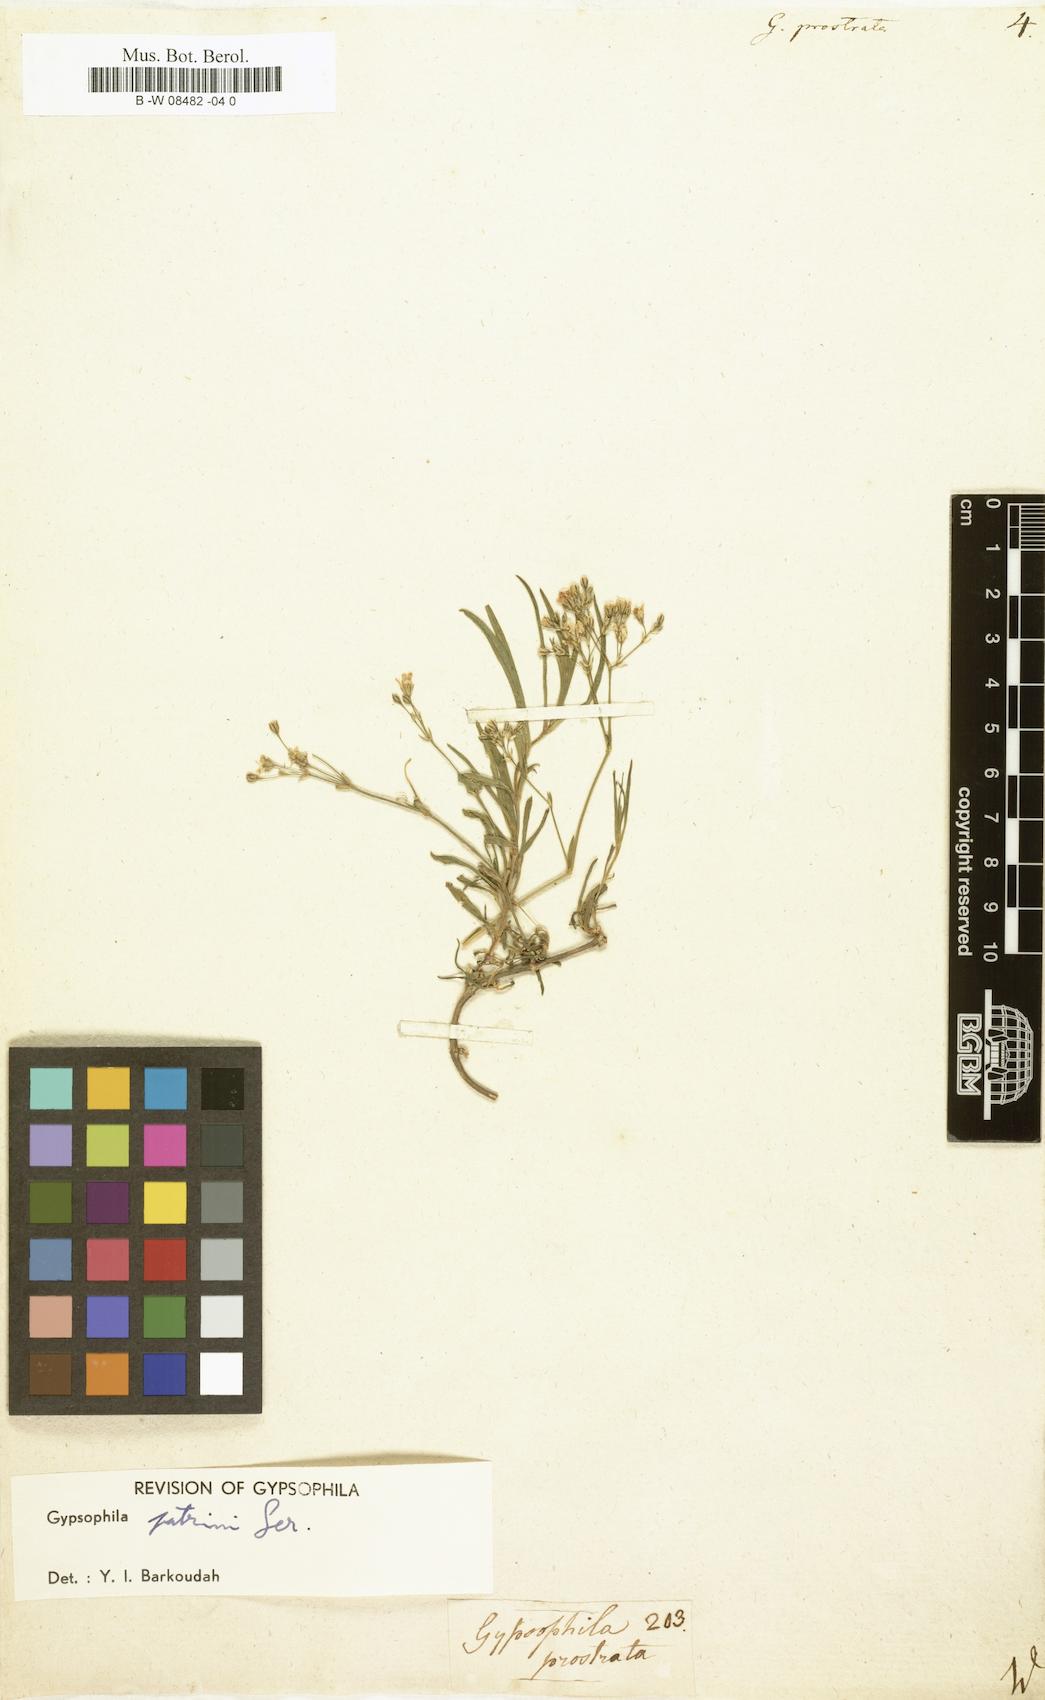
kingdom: Plantae
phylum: Tracheophyta
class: Magnoliopsida
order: Caryophyllales
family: Caryophyllaceae
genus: Gypsophila
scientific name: Gypsophila
